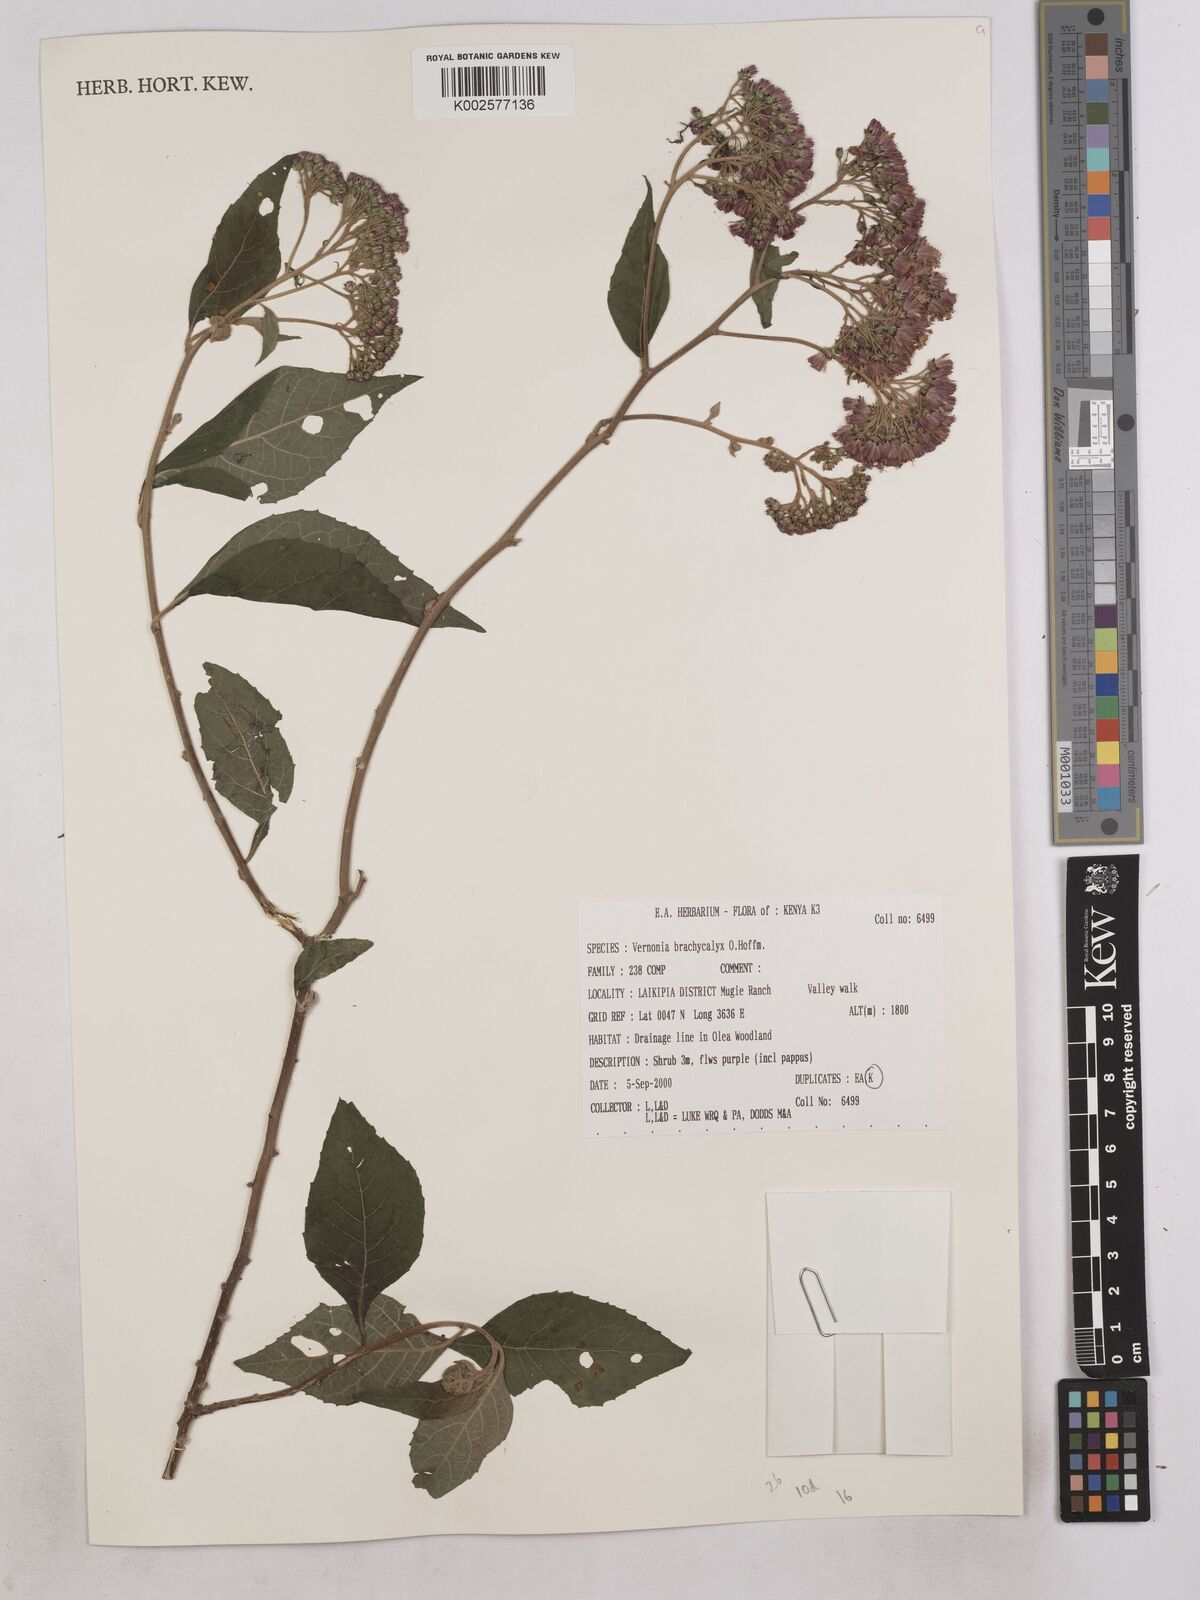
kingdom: Plantae
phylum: Tracheophyta
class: Magnoliopsida
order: Asterales
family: Asteraceae
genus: Hoffmannanthus
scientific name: Hoffmannanthus abbotianus
